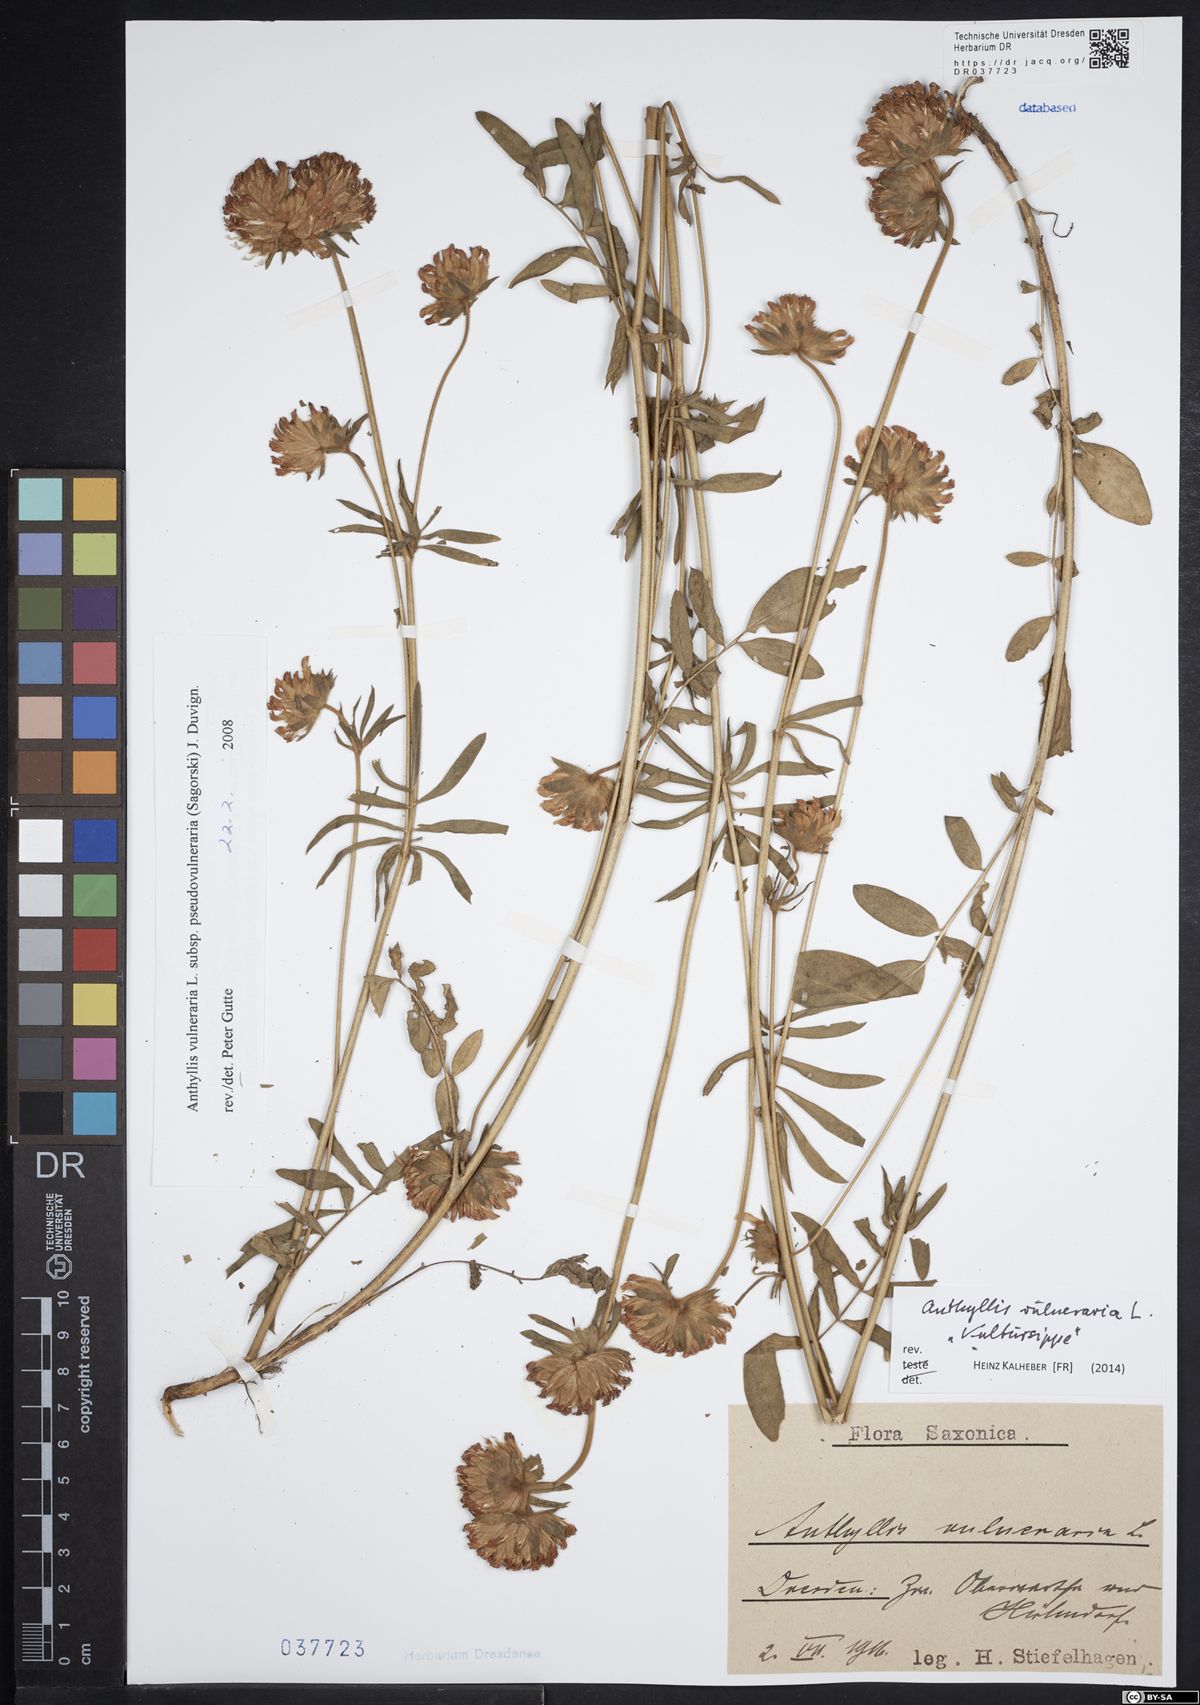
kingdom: Plantae
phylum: Tracheophyta
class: Magnoliopsida
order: Fabales
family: Fabaceae
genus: Anthyllis
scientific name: Anthyllis vulneraria
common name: Kidney vetch
